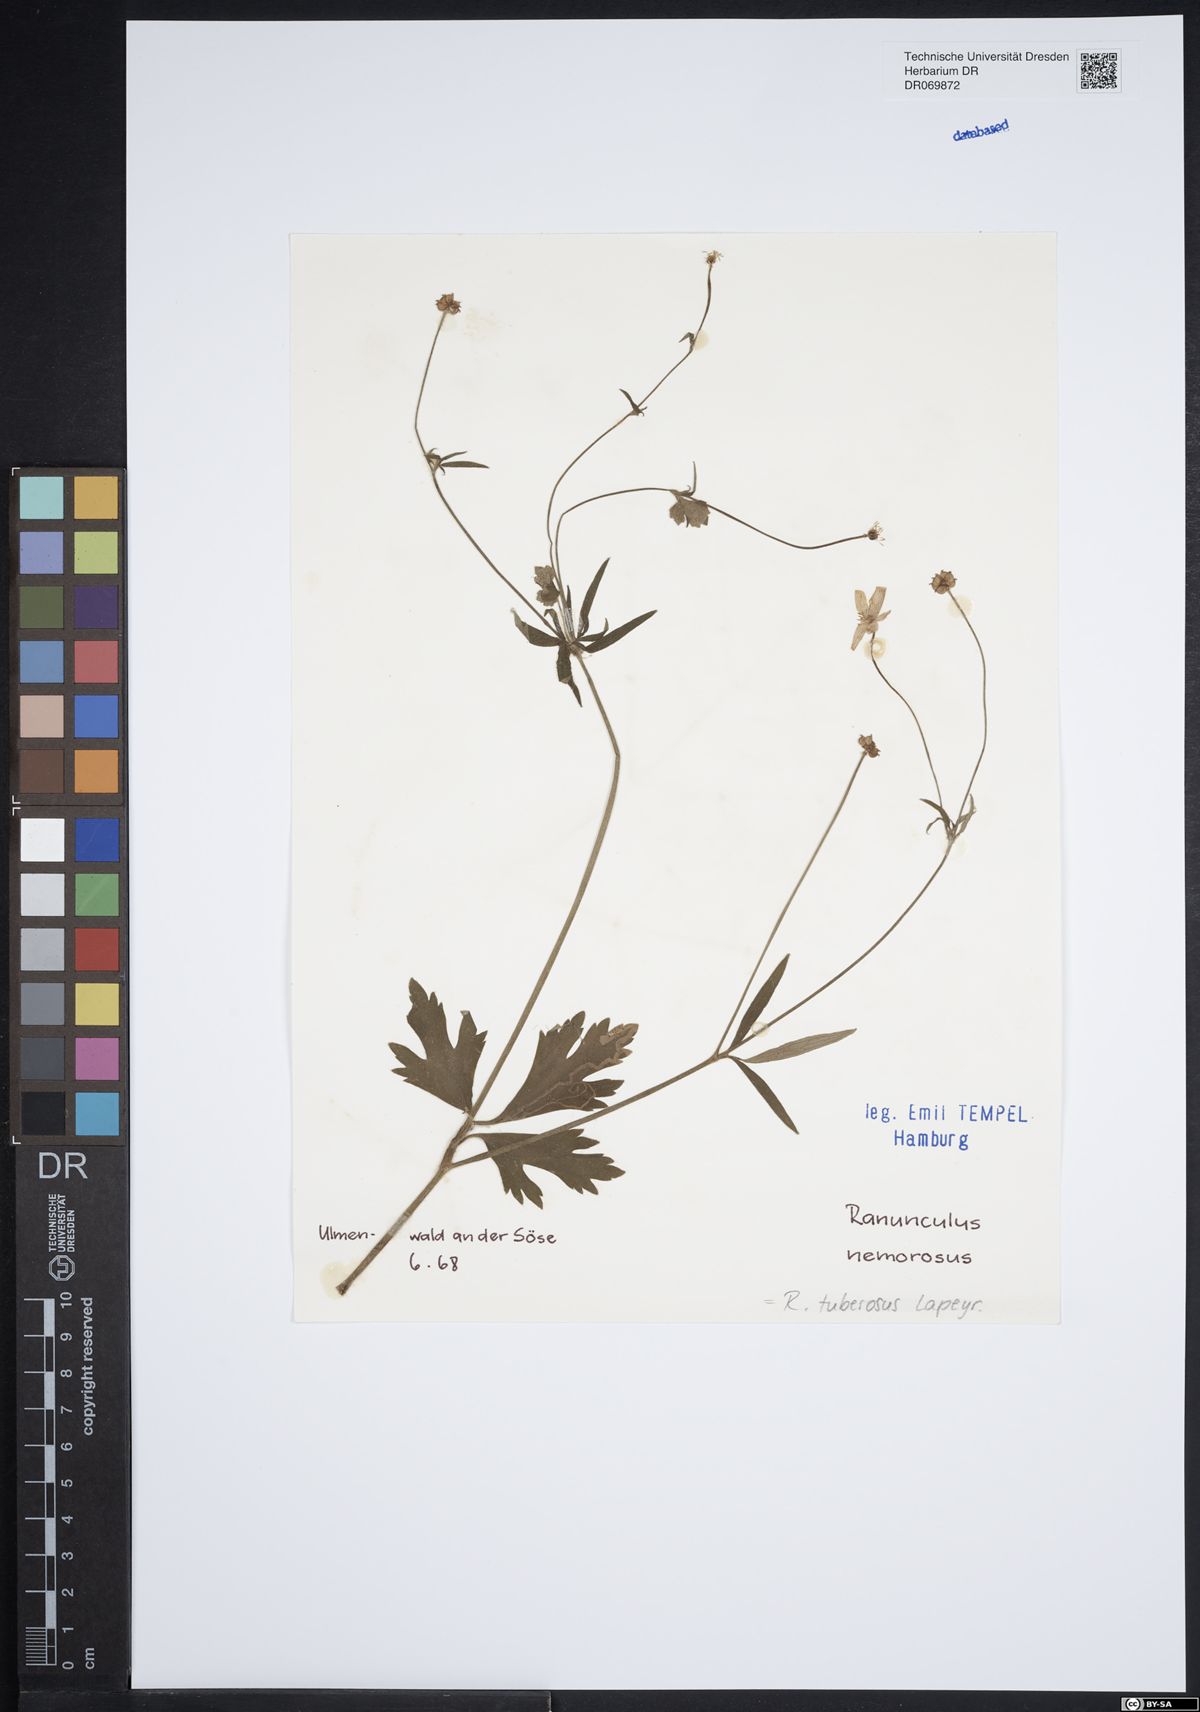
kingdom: Plantae
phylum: Tracheophyta
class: Magnoliopsida
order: Ranunculales
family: Ranunculaceae
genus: Ranunculus
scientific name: Ranunculus polyanthemos
